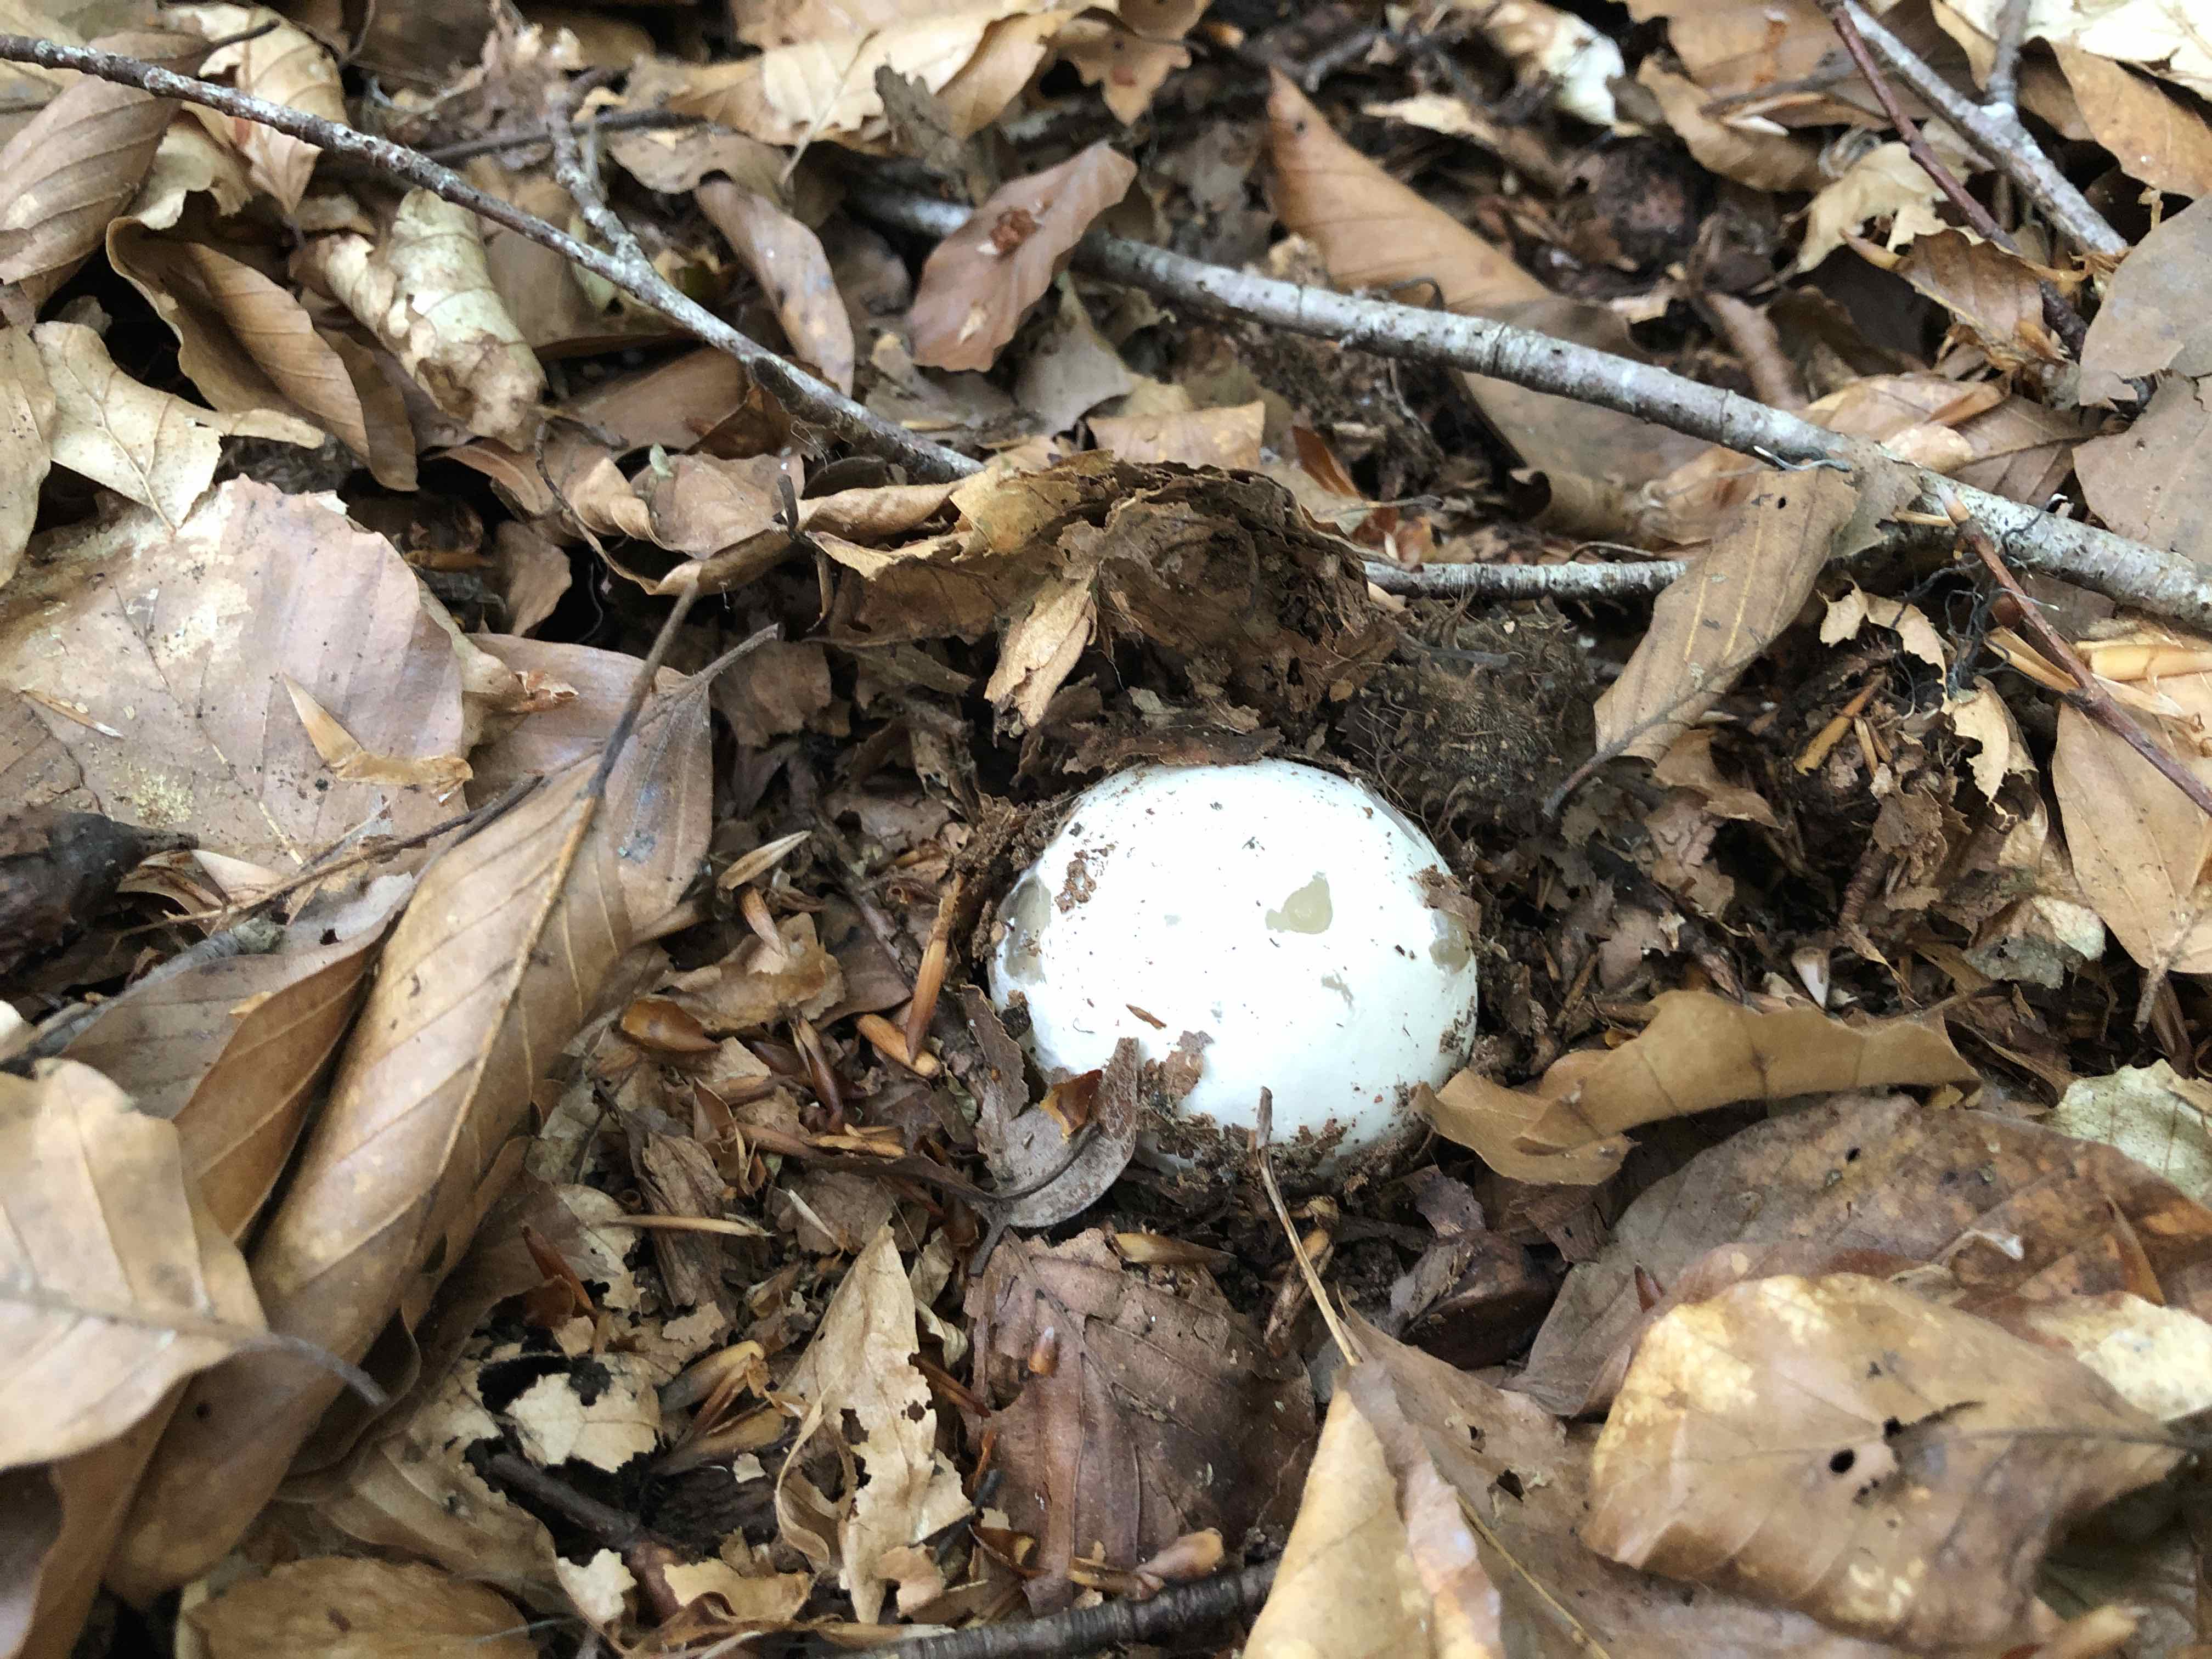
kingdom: Fungi
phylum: Basidiomycota
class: Agaricomycetes
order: Phallales
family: Phallaceae
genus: Phallus
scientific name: Phallus impudicus
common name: almindelig stinksvamp
